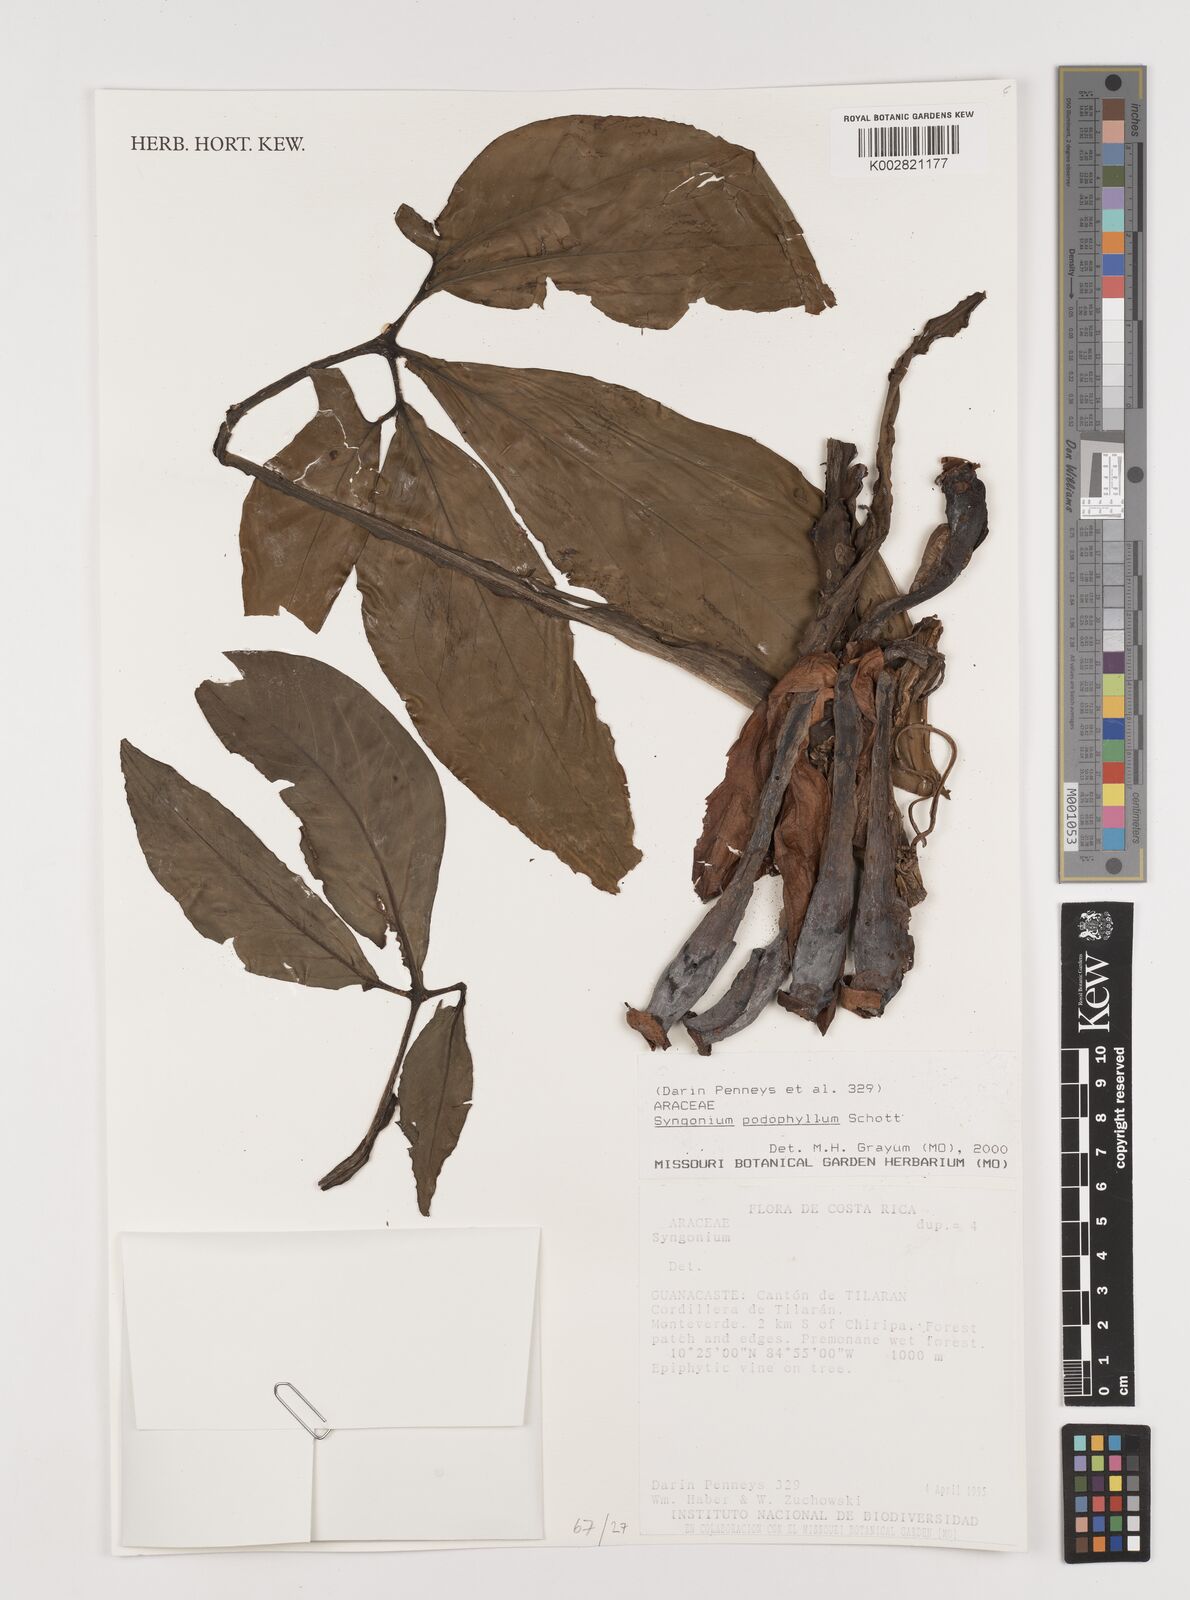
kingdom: Plantae
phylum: Tracheophyta
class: Liliopsida
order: Alismatales
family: Araceae
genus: Syngonium
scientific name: Syngonium podophyllum
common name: American evergreen
